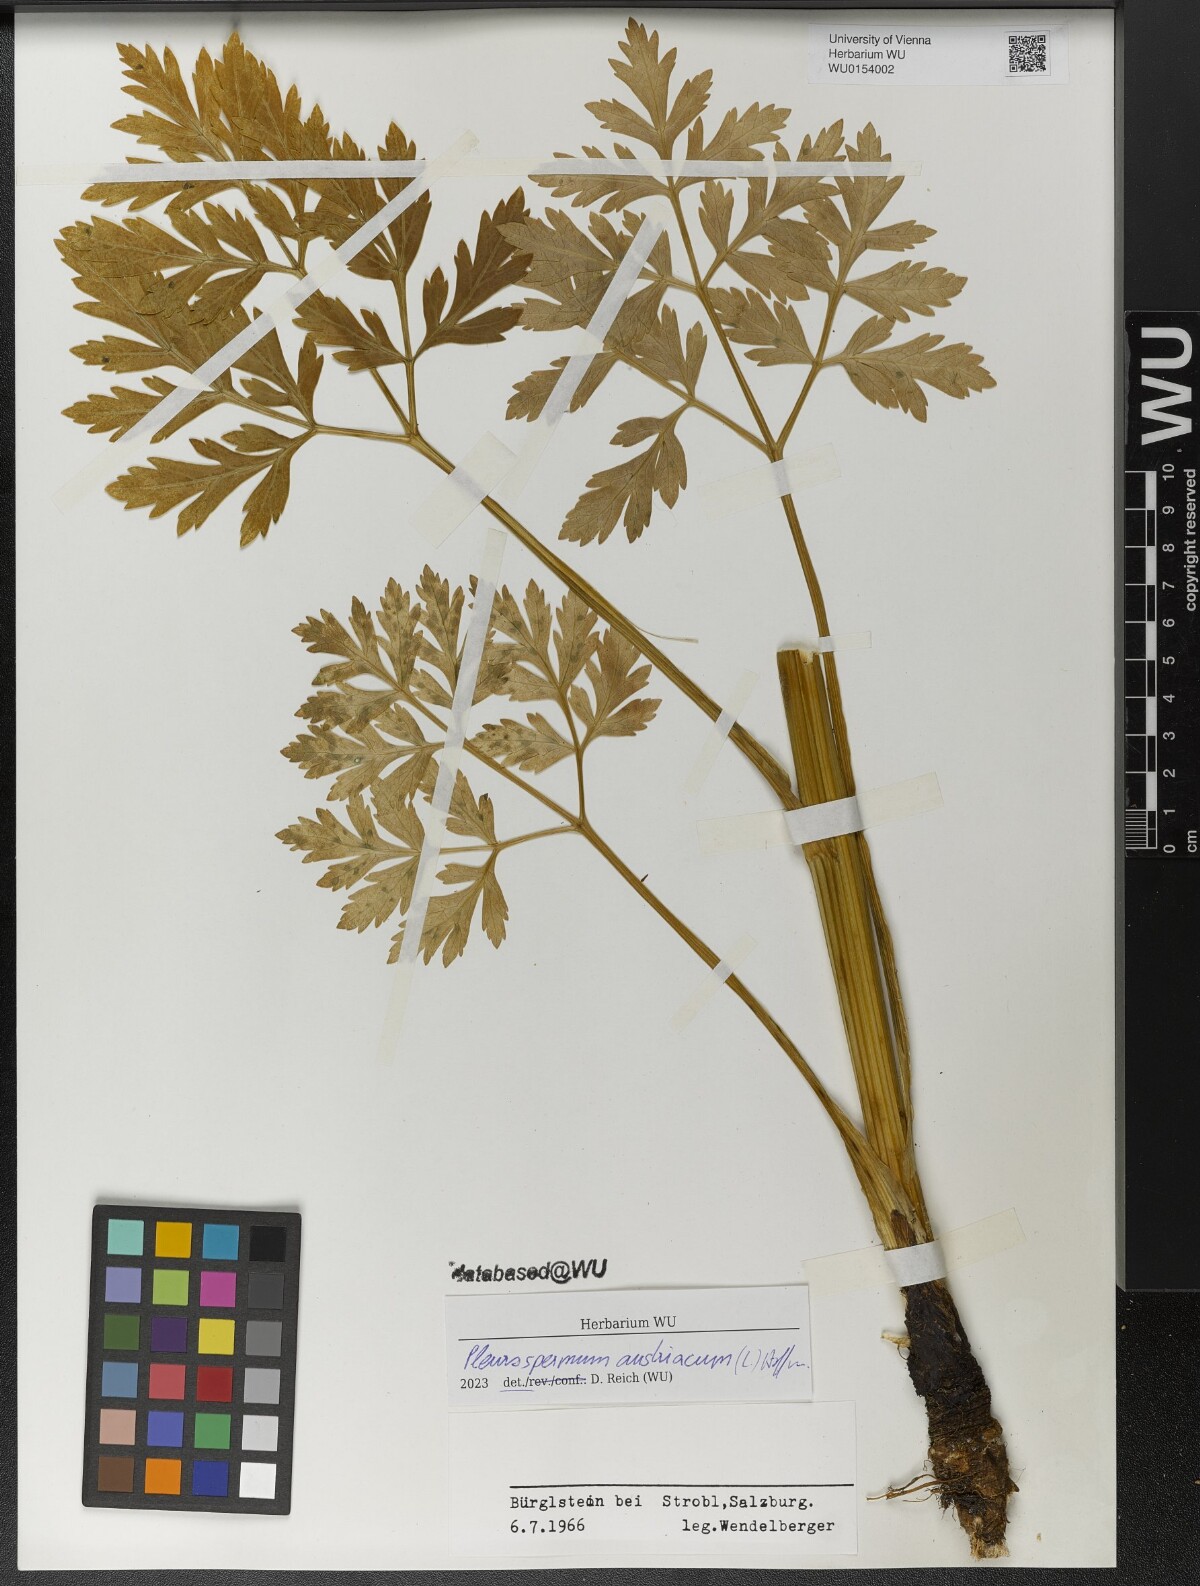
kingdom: Plantae
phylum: Tracheophyta
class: Magnoliopsida
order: Apiales
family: Apiaceae
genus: Pleurospermum
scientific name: Pleurospermum austriacum
